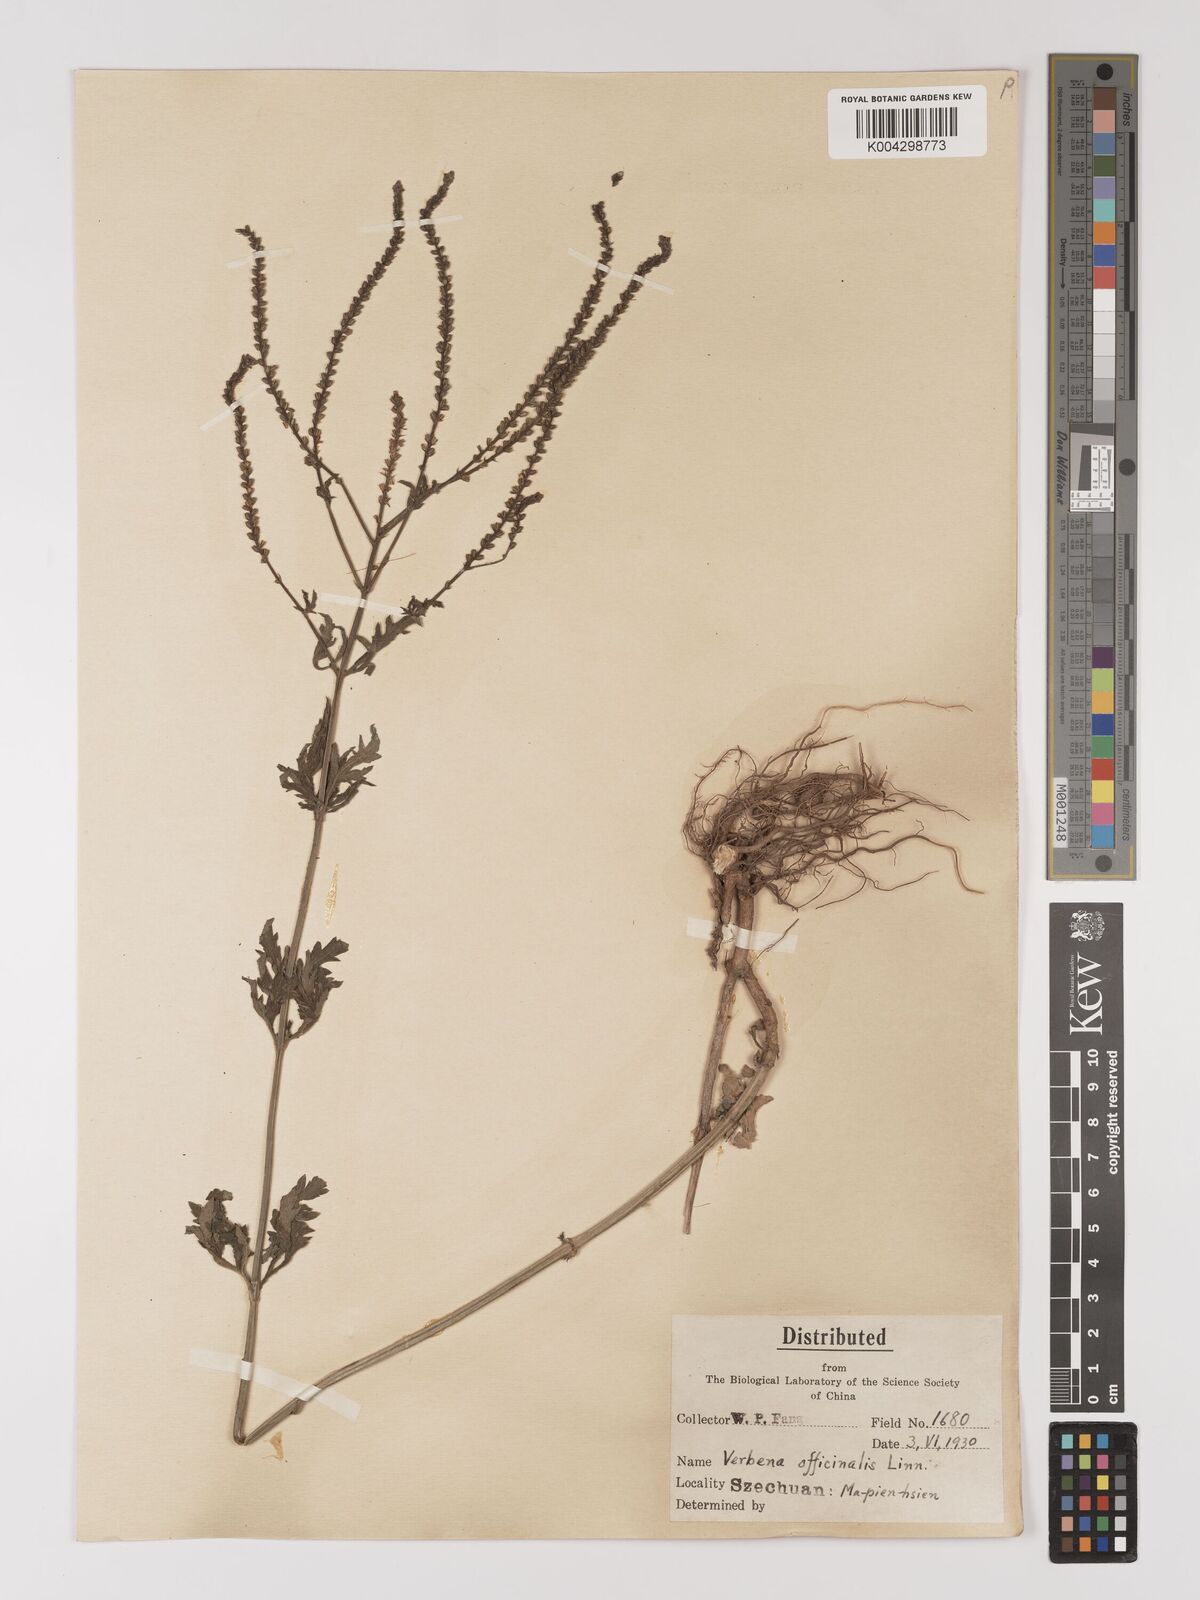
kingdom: Plantae
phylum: Tracheophyta
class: Magnoliopsida
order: Lamiales
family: Verbenaceae
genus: Verbena
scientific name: Verbena officinalis
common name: Vervain
